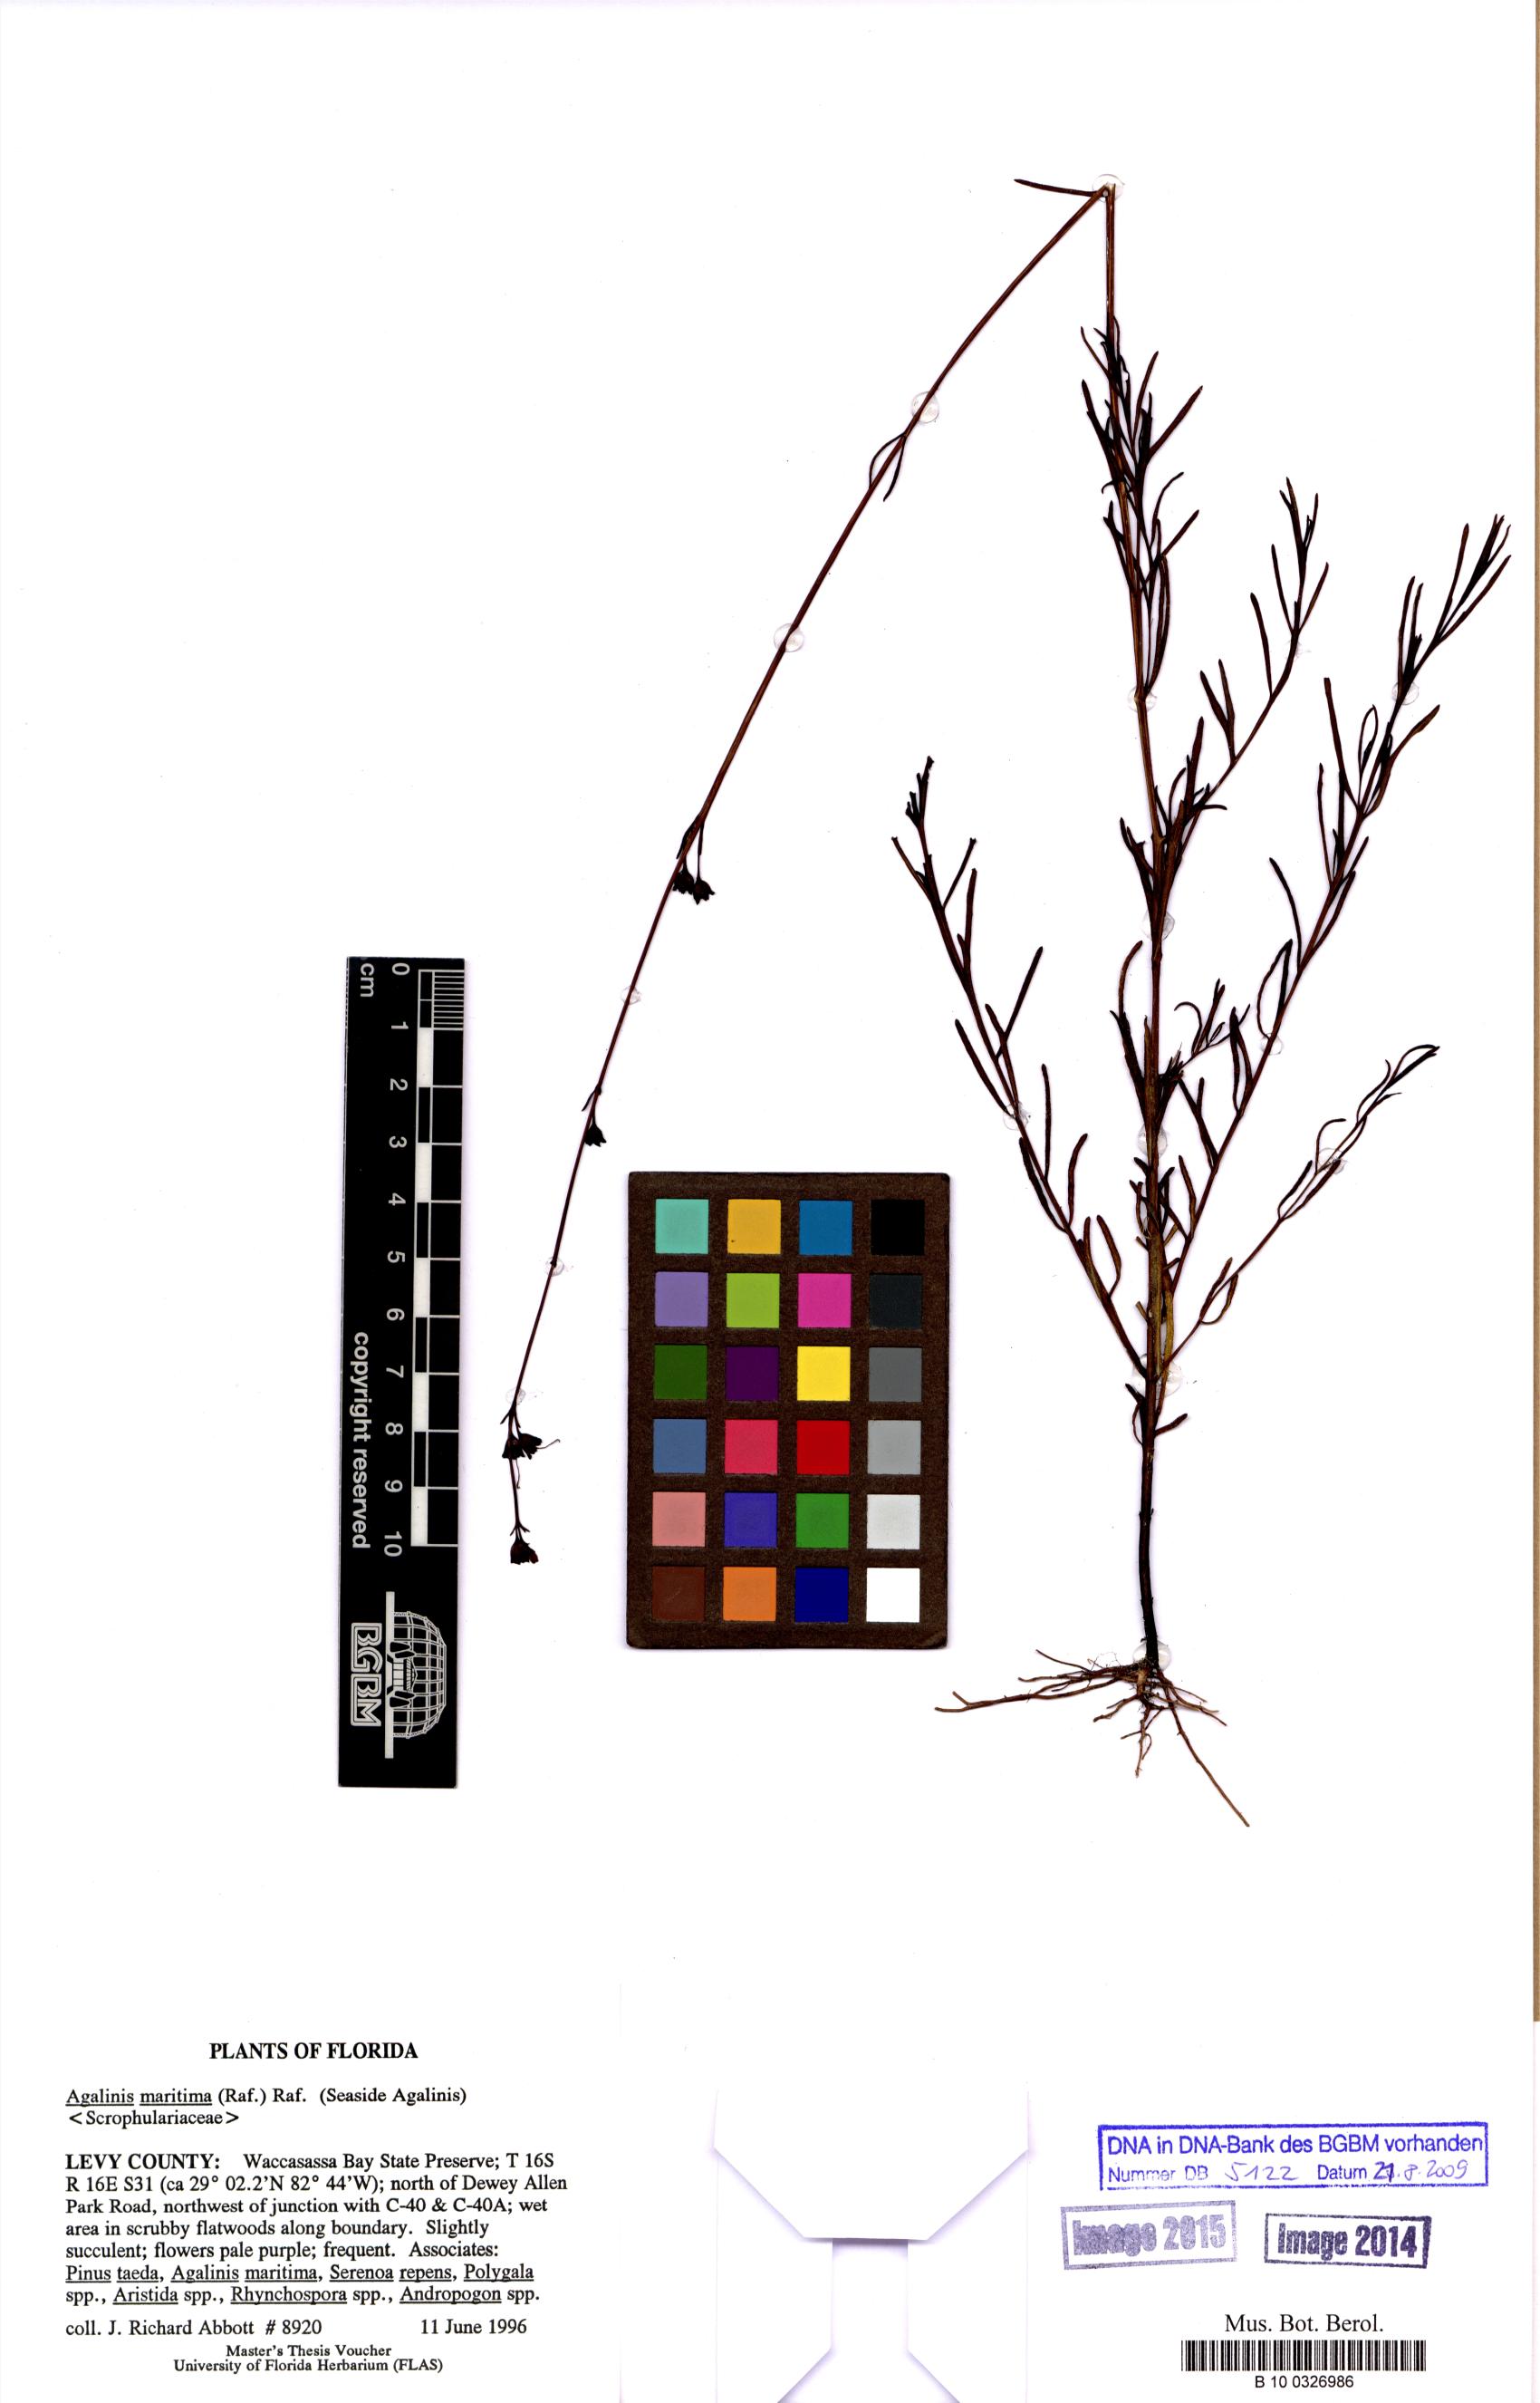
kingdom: Plantae
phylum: Tracheophyta
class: Magnoliopsida
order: Lamiales
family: Orobanchaceae
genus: Agalinis
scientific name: Agalinis maritima
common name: Saltmarsh agalinis
